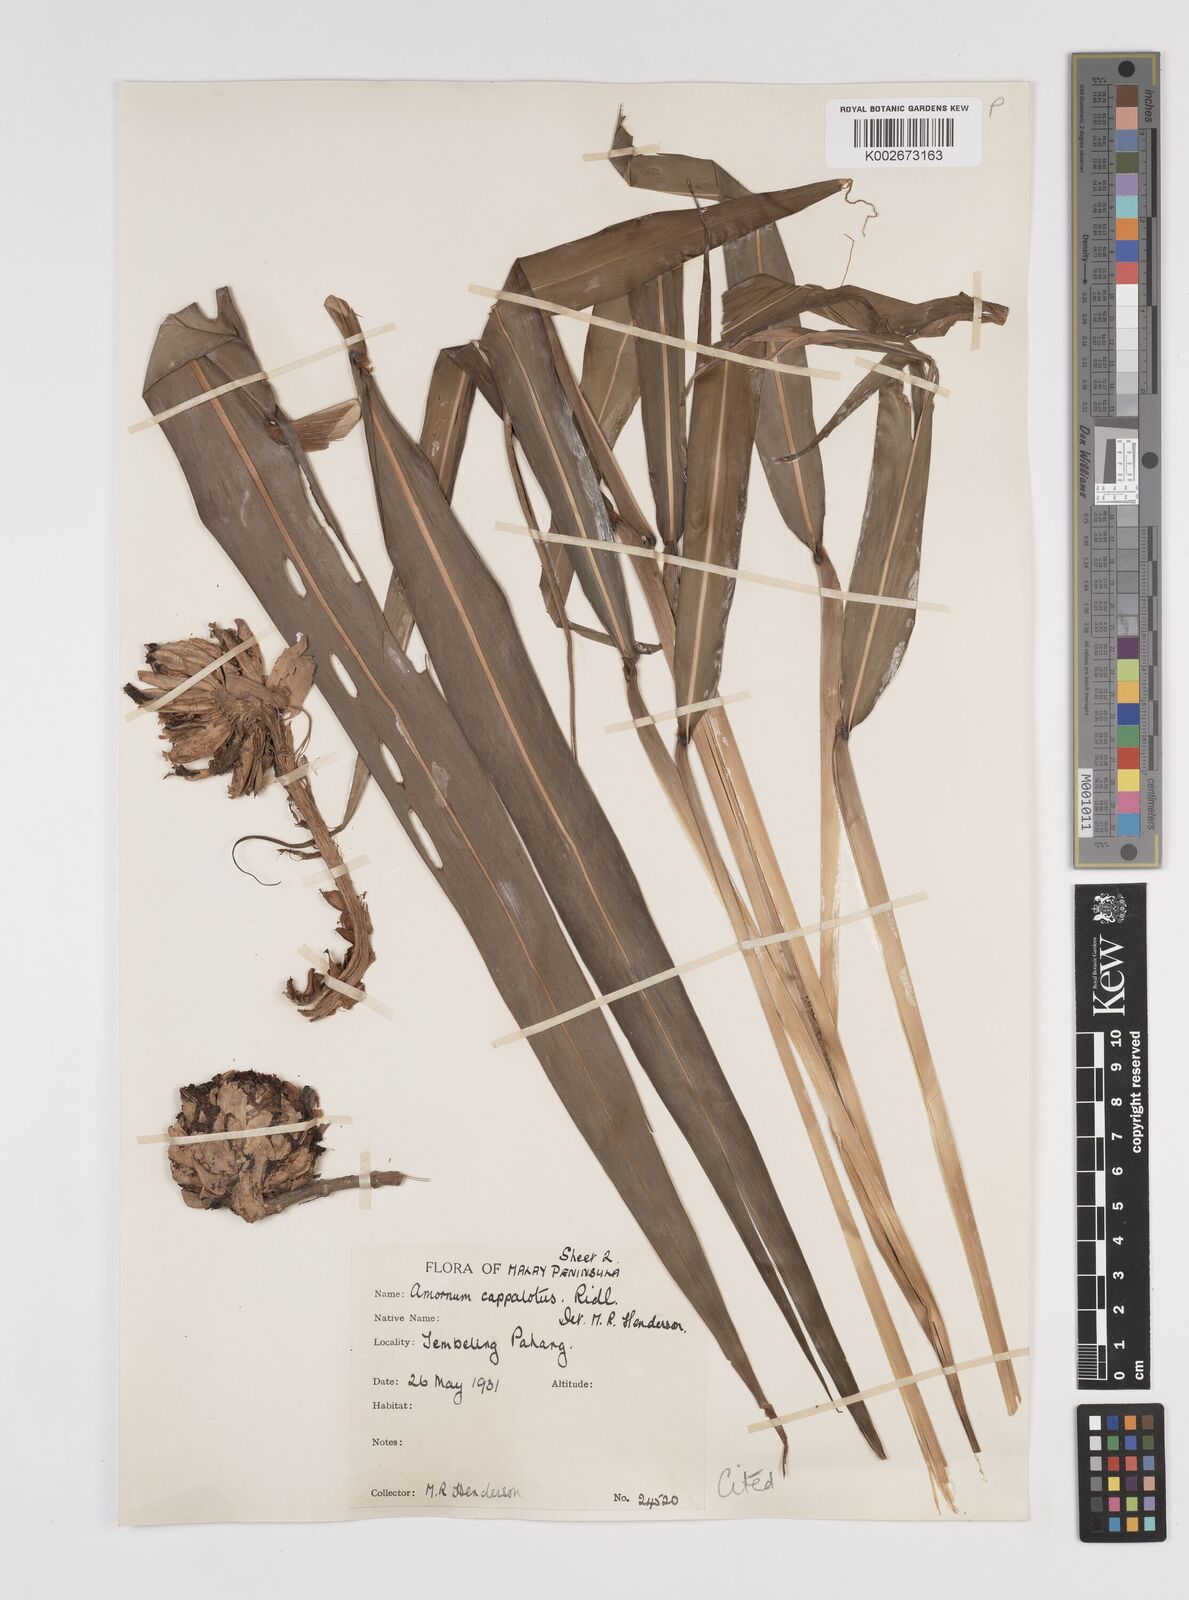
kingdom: Plantae
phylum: Tracheophyta
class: Liliopsida
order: Zingiberales
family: Zingiberaceae
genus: Amomum
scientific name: Amomum cephalotes
